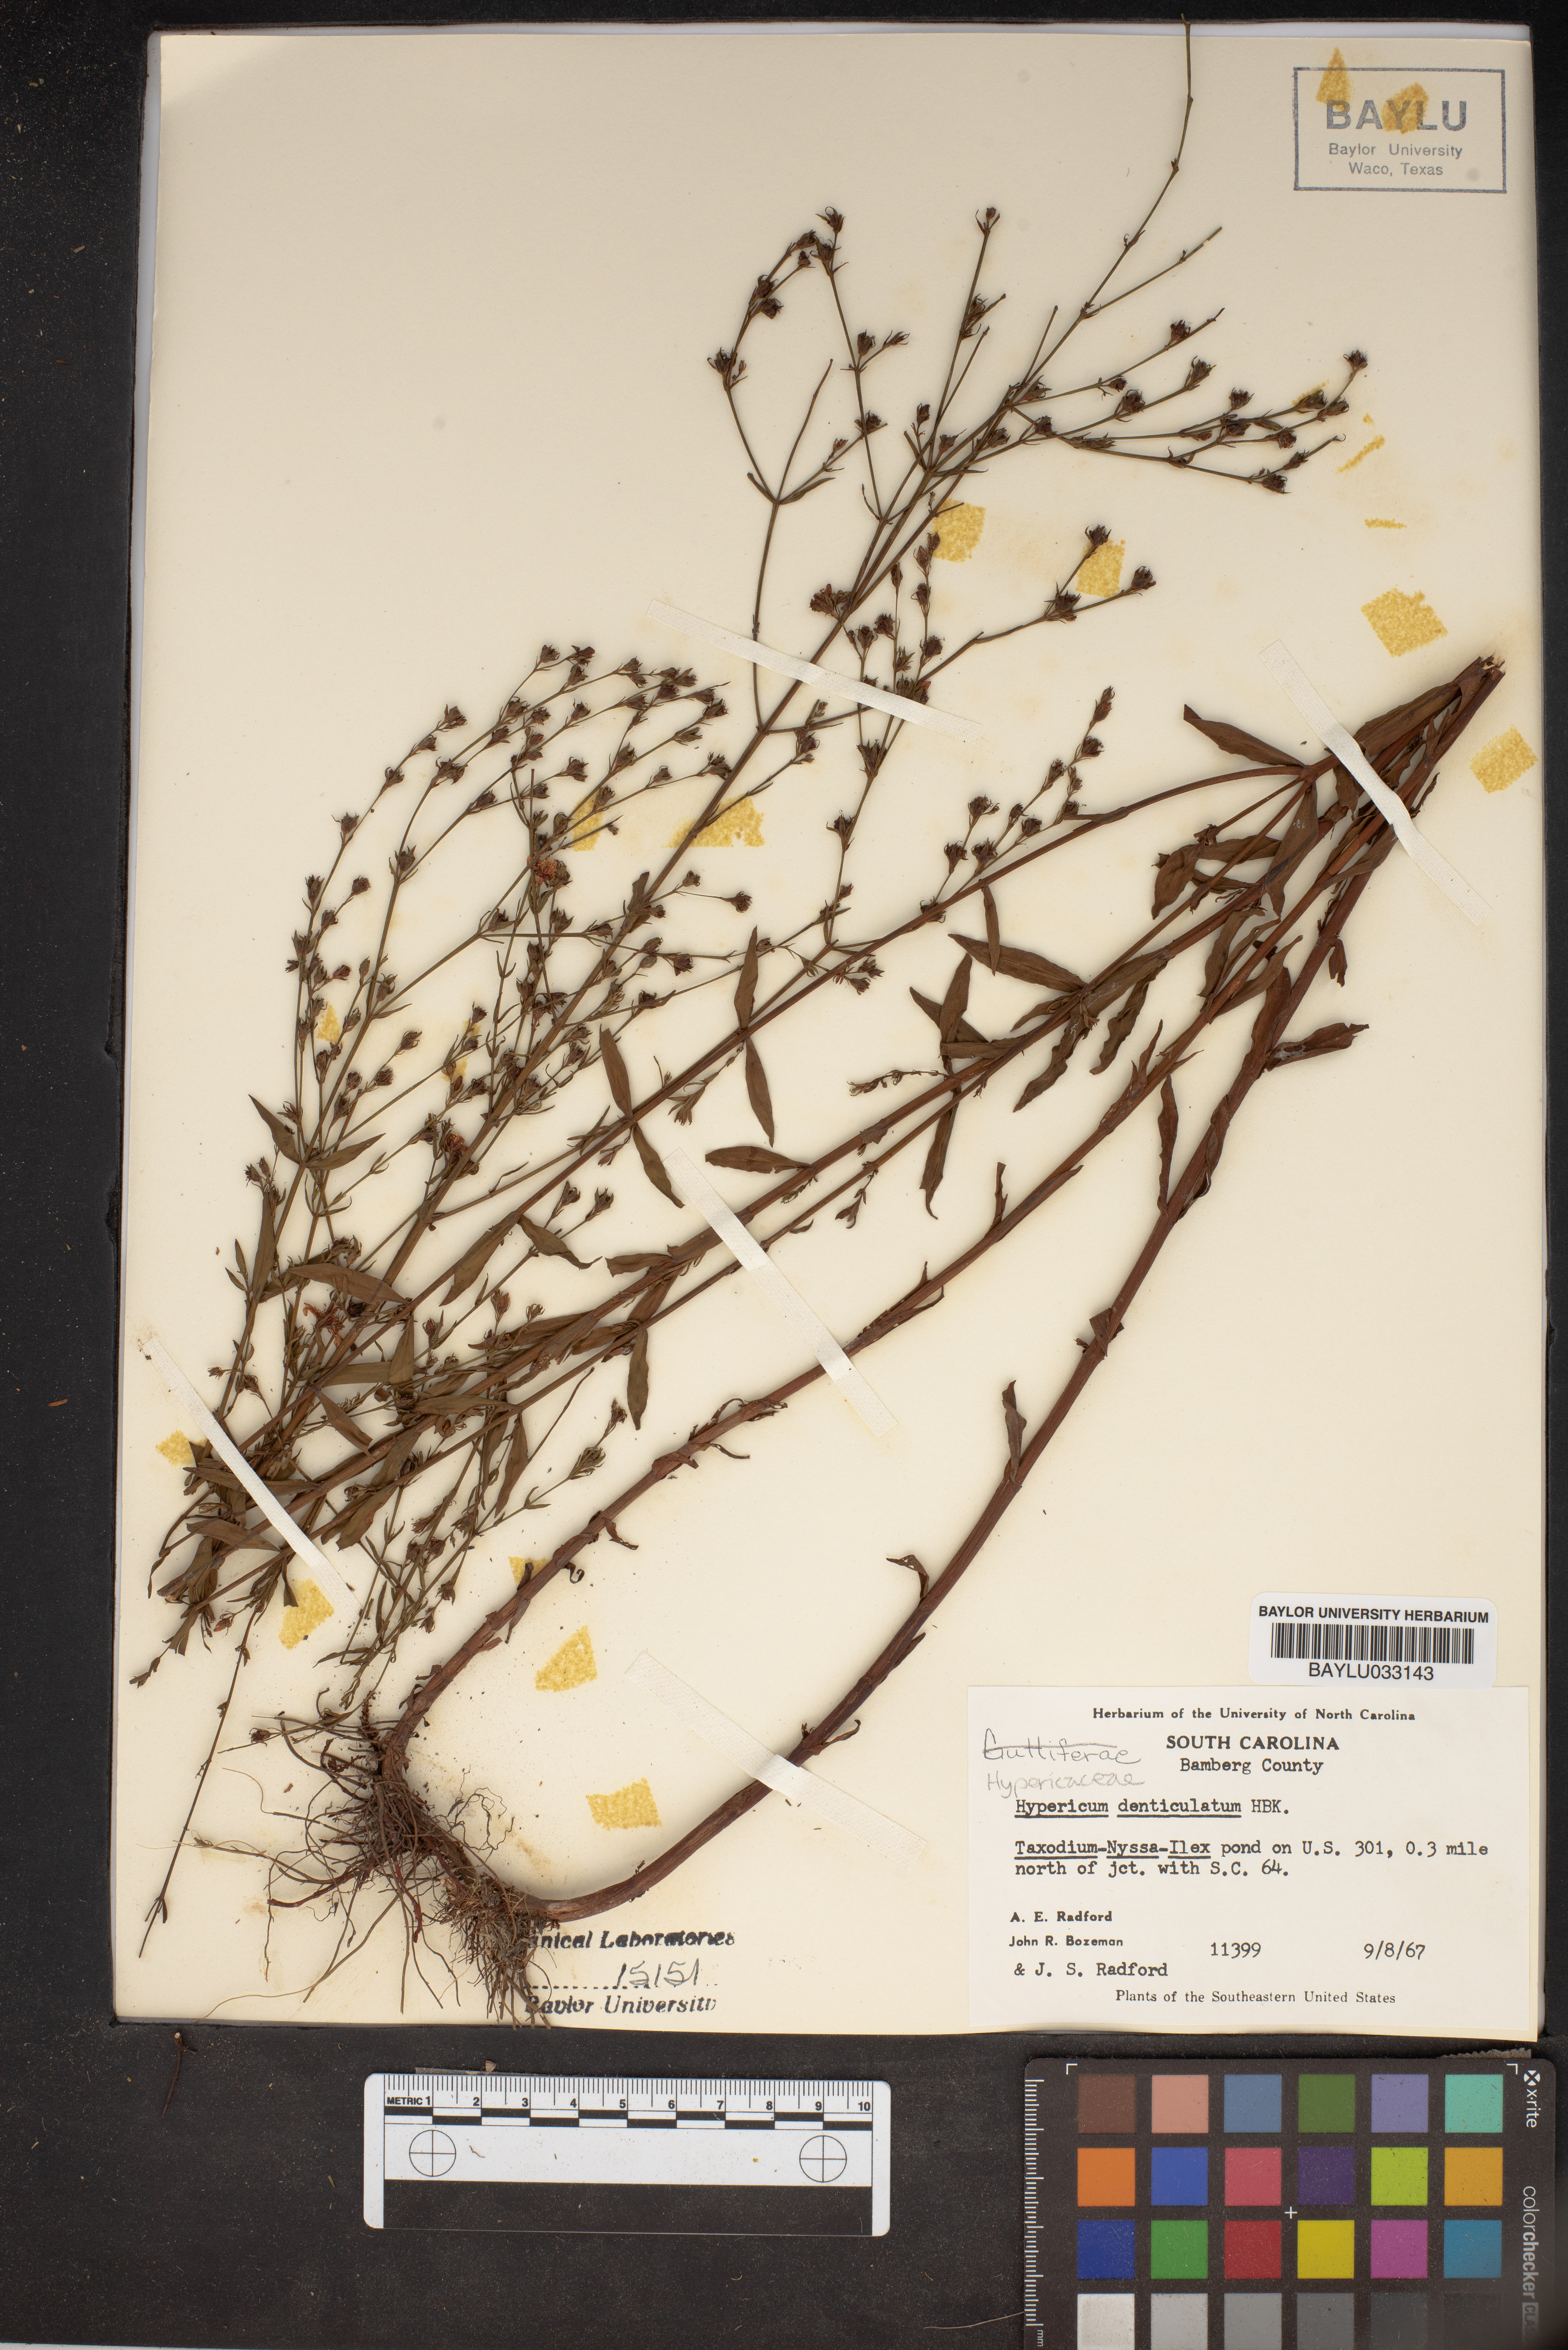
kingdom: Plantae
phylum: Tracheophyta
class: Magnoliopsida
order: Malpighiales
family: Hypericaceae
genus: Hypericum
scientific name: Hypericum denticulatum
